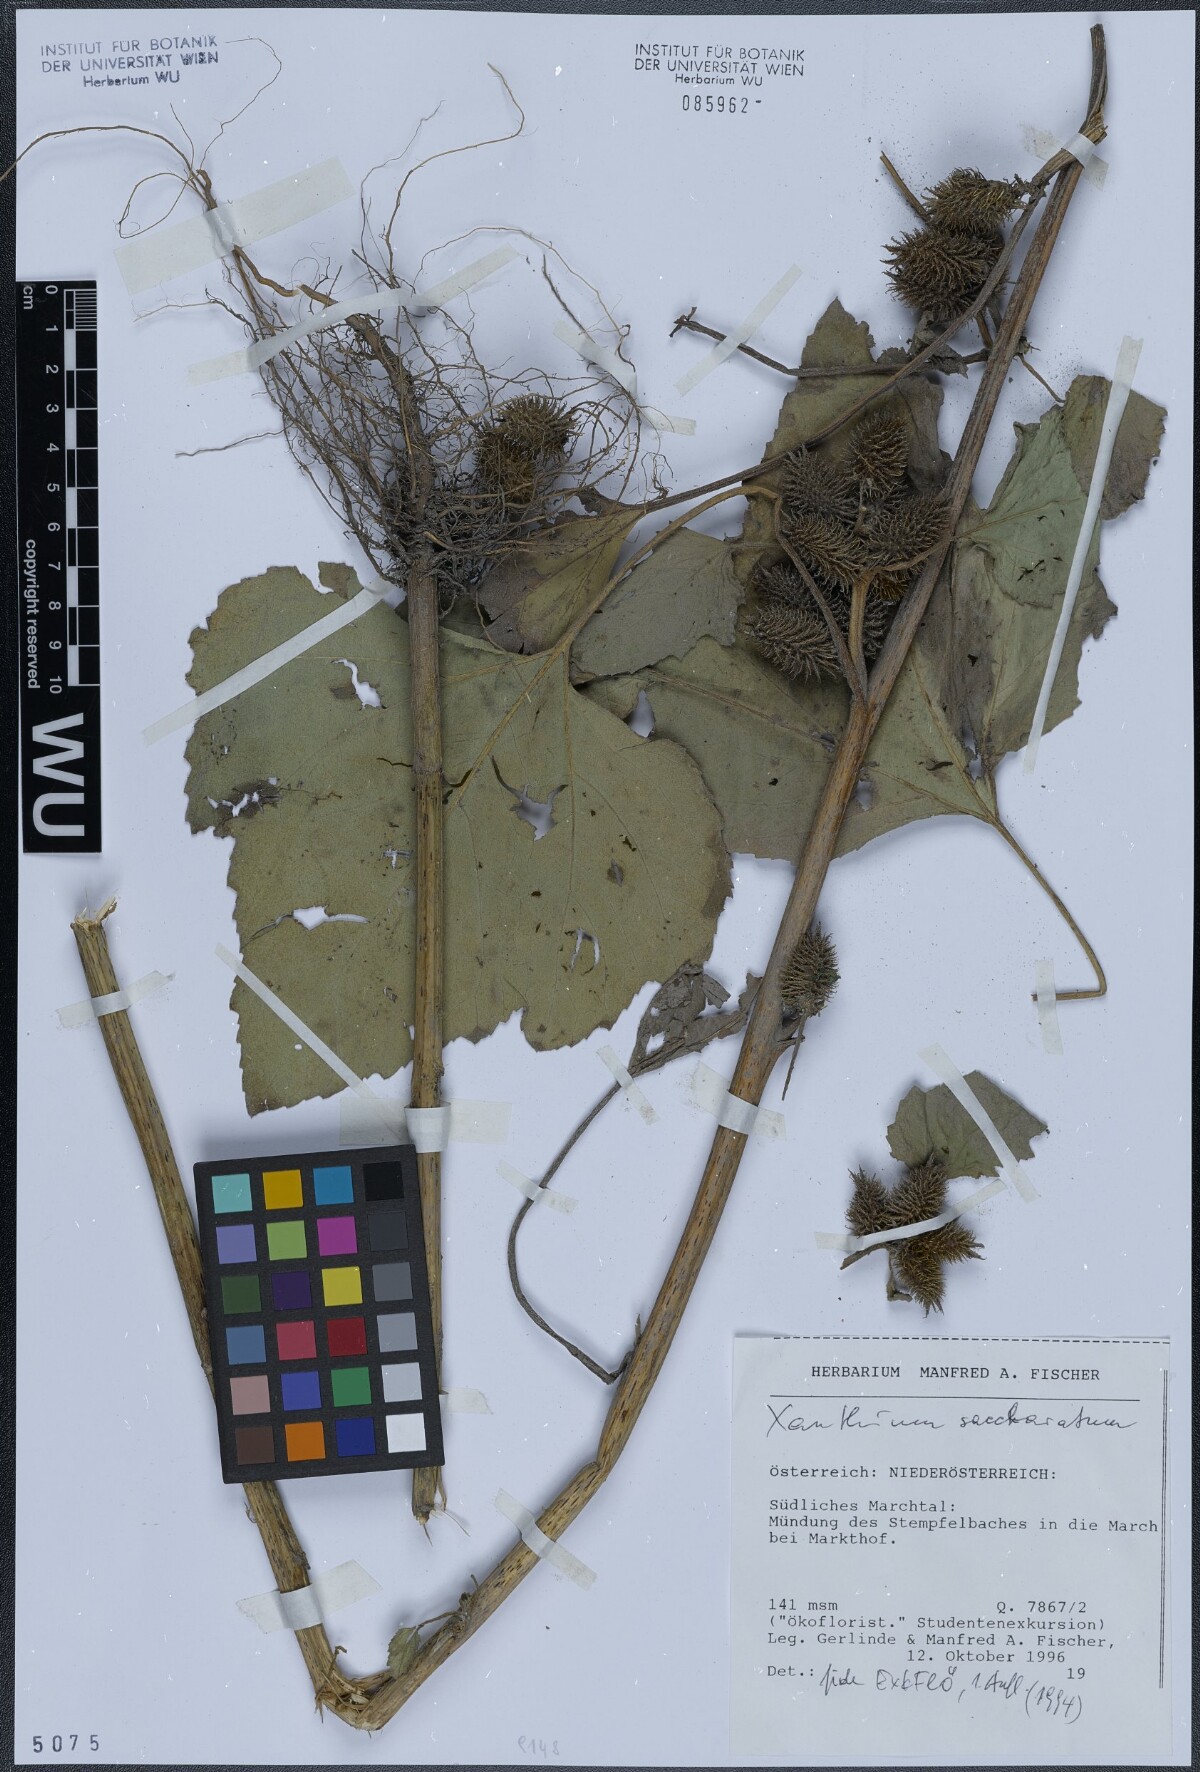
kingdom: Plantae
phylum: Tracheophyta
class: Magnoliopsida
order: Asterales
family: Asteraceae
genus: Xanthium
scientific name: Xanthium orientale
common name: Californian burr
